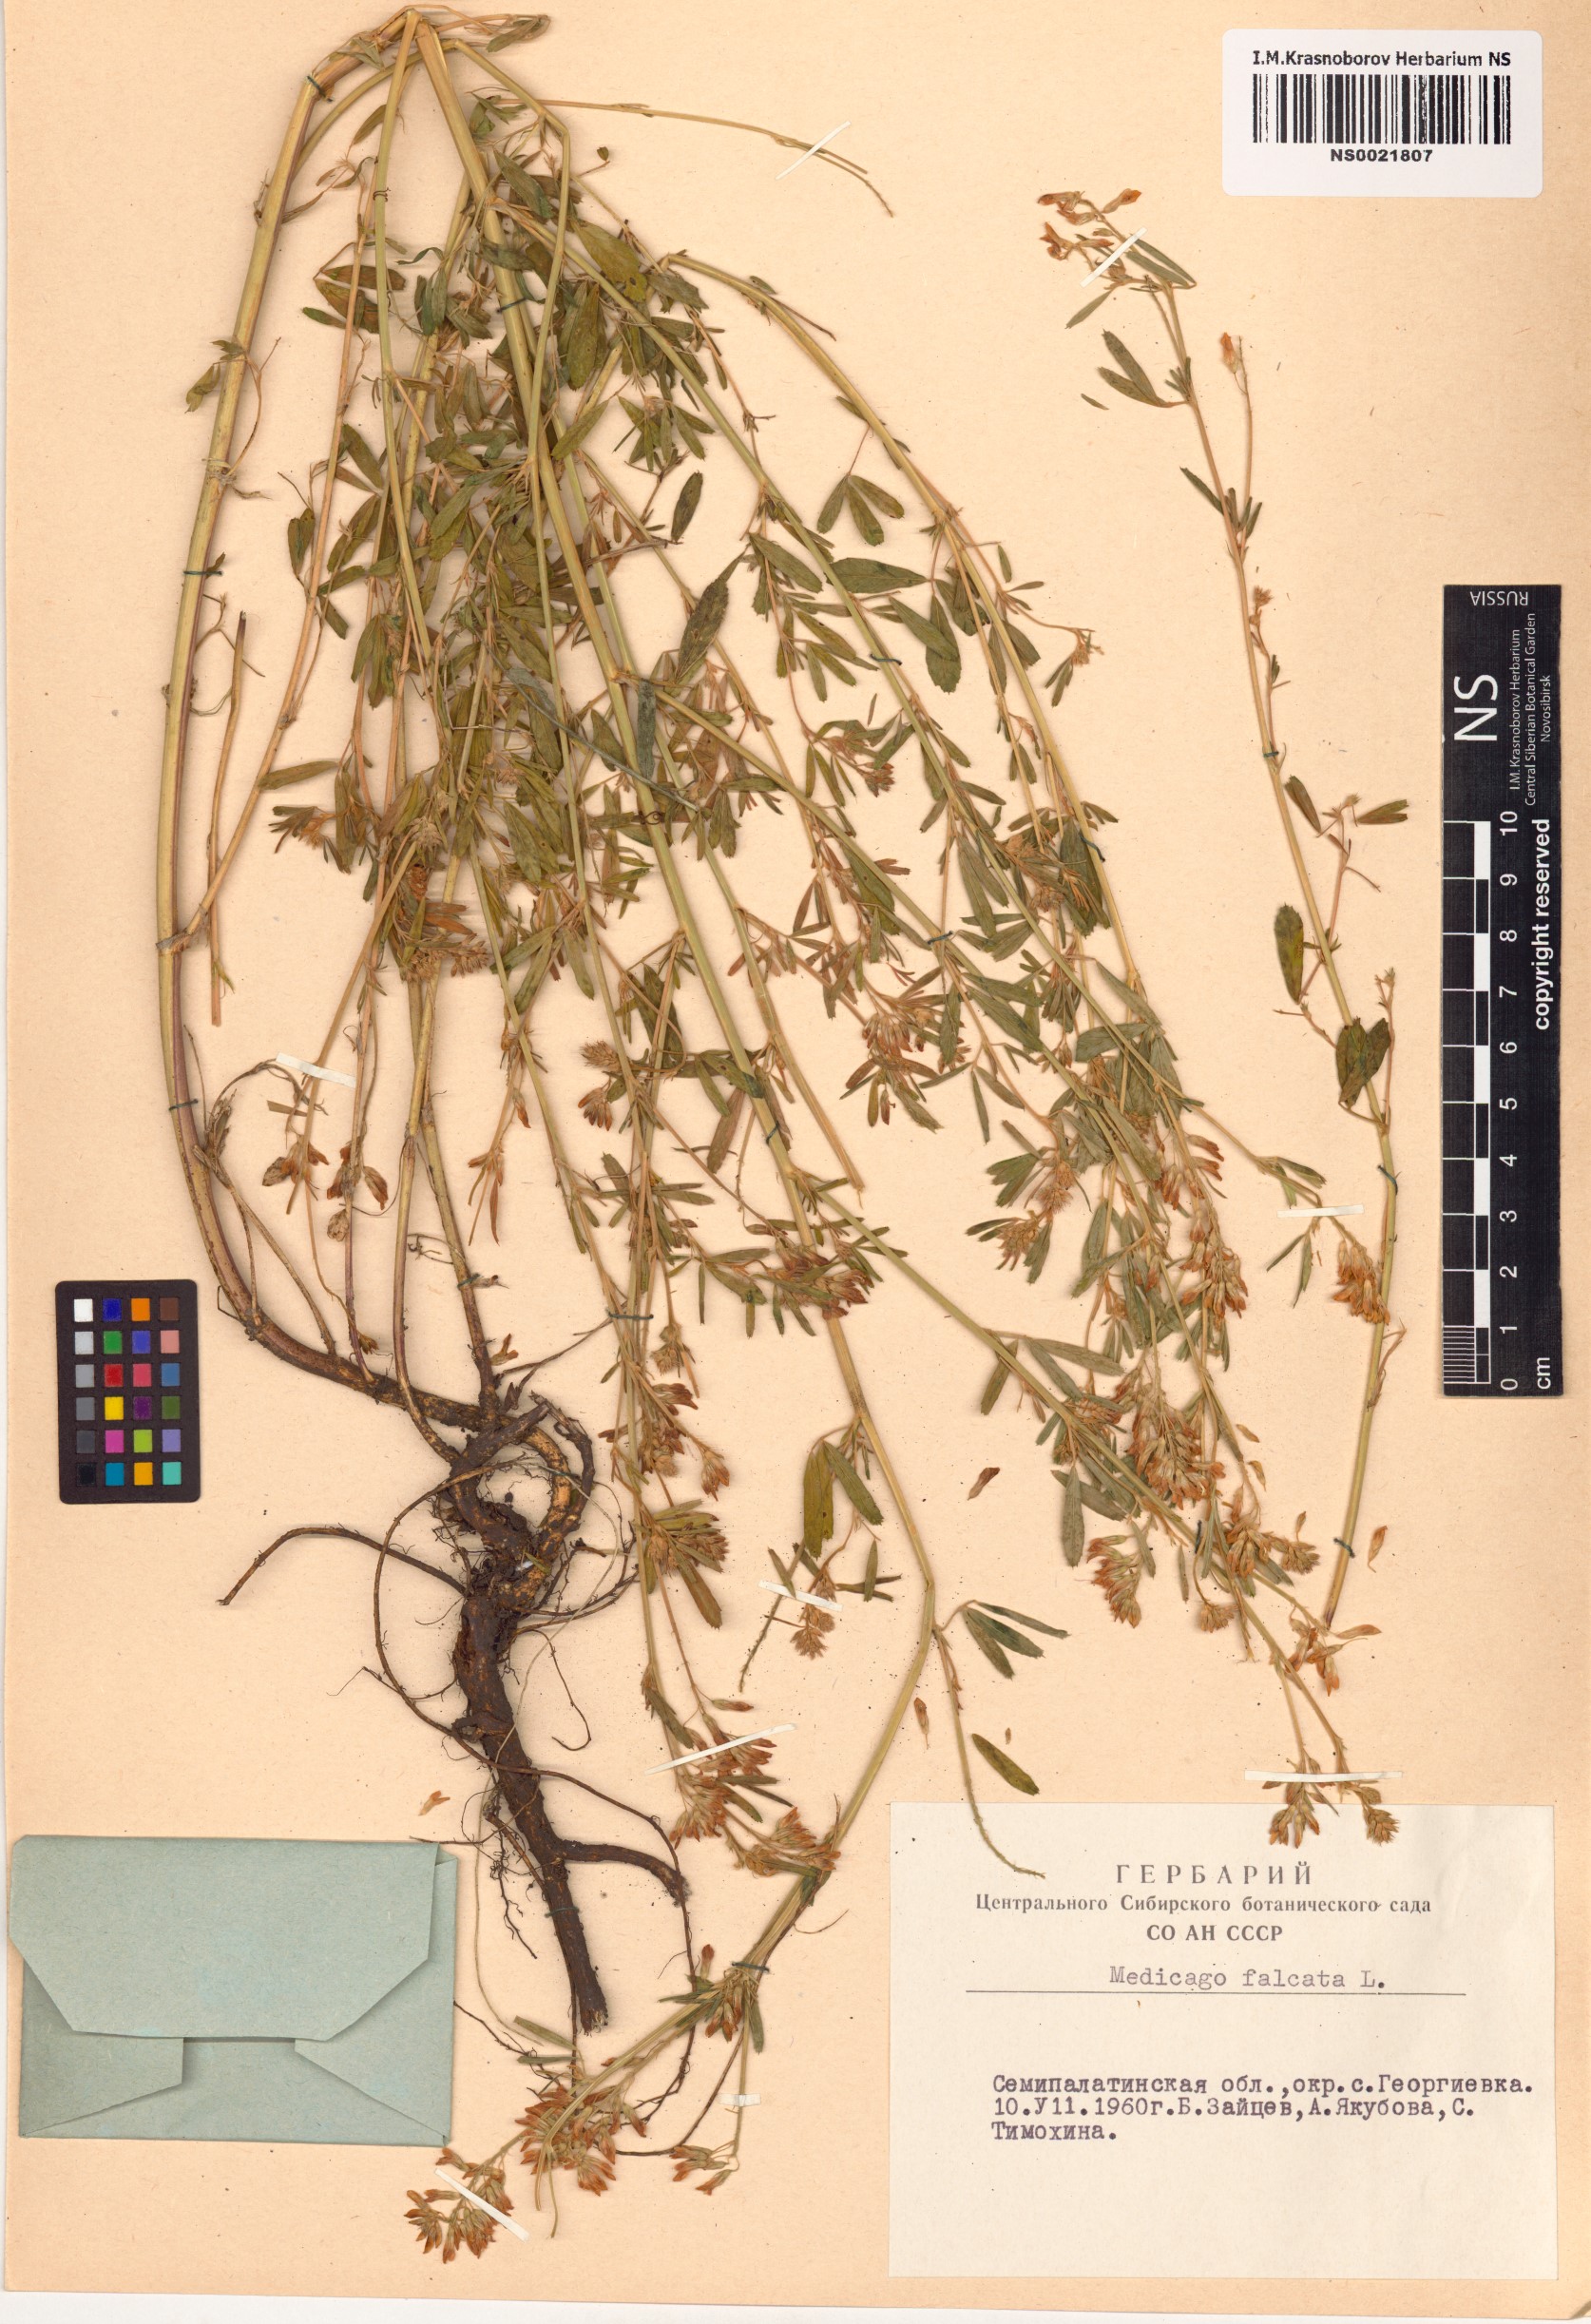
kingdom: Plantae
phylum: Tracheophyta
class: Magnoliopsida
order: Fabales
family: Fabaceae
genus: Medicago
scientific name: Medicago falcata
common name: Sickle medick
